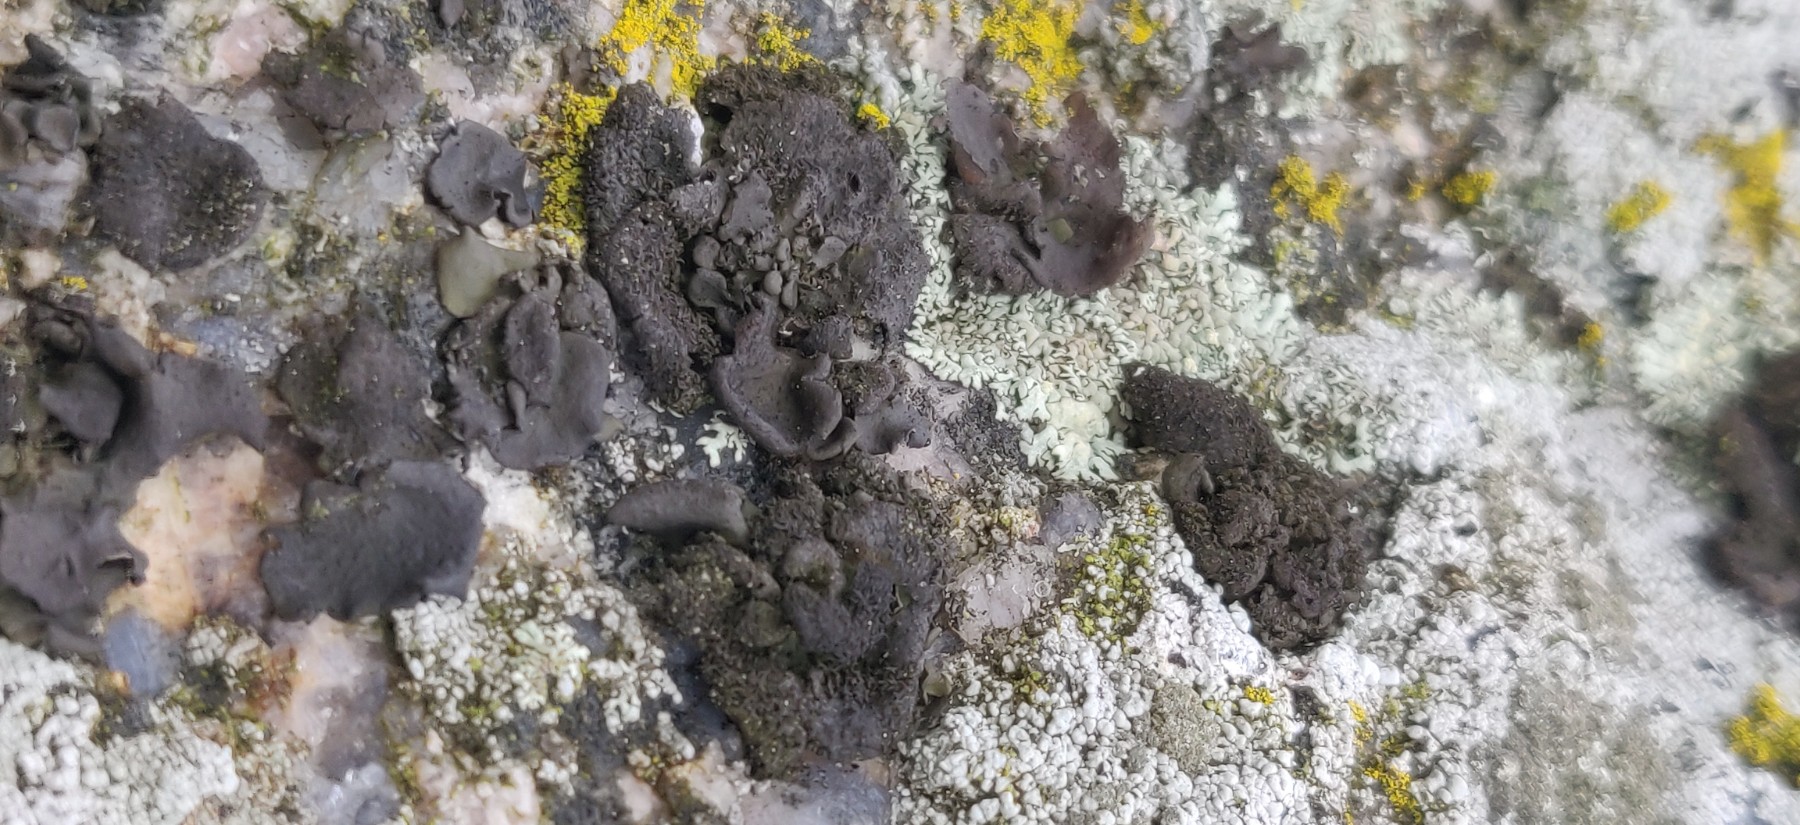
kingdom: Fungi
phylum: Ascomycota
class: Lecanoromycetes
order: Umbilicariales
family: Umbilicariaceae
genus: Umbilicaria
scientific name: Umbilicaria deusta
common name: kliddet navlelav
